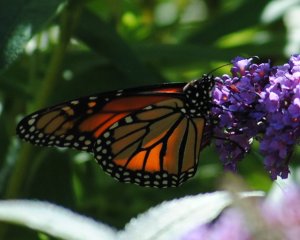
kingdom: Animalia
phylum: Arthropoda
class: Insecta
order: Lepidoptera
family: Nymphalidae
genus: Danaus
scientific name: Danaus plexippus
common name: Monarch
